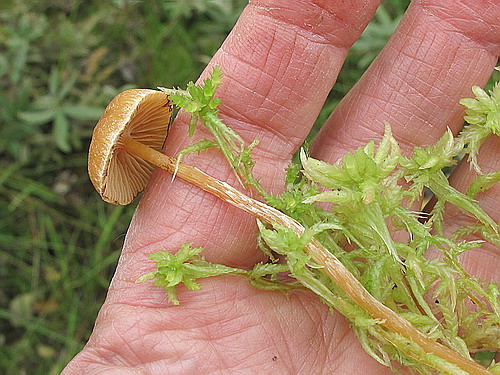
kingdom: Fungi
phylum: Basidiomycota
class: Agaricomycetes
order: Agaricales
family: Hymenogastraceae
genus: Galerina
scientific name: Galerina paludosa
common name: mose-hjelmhat
